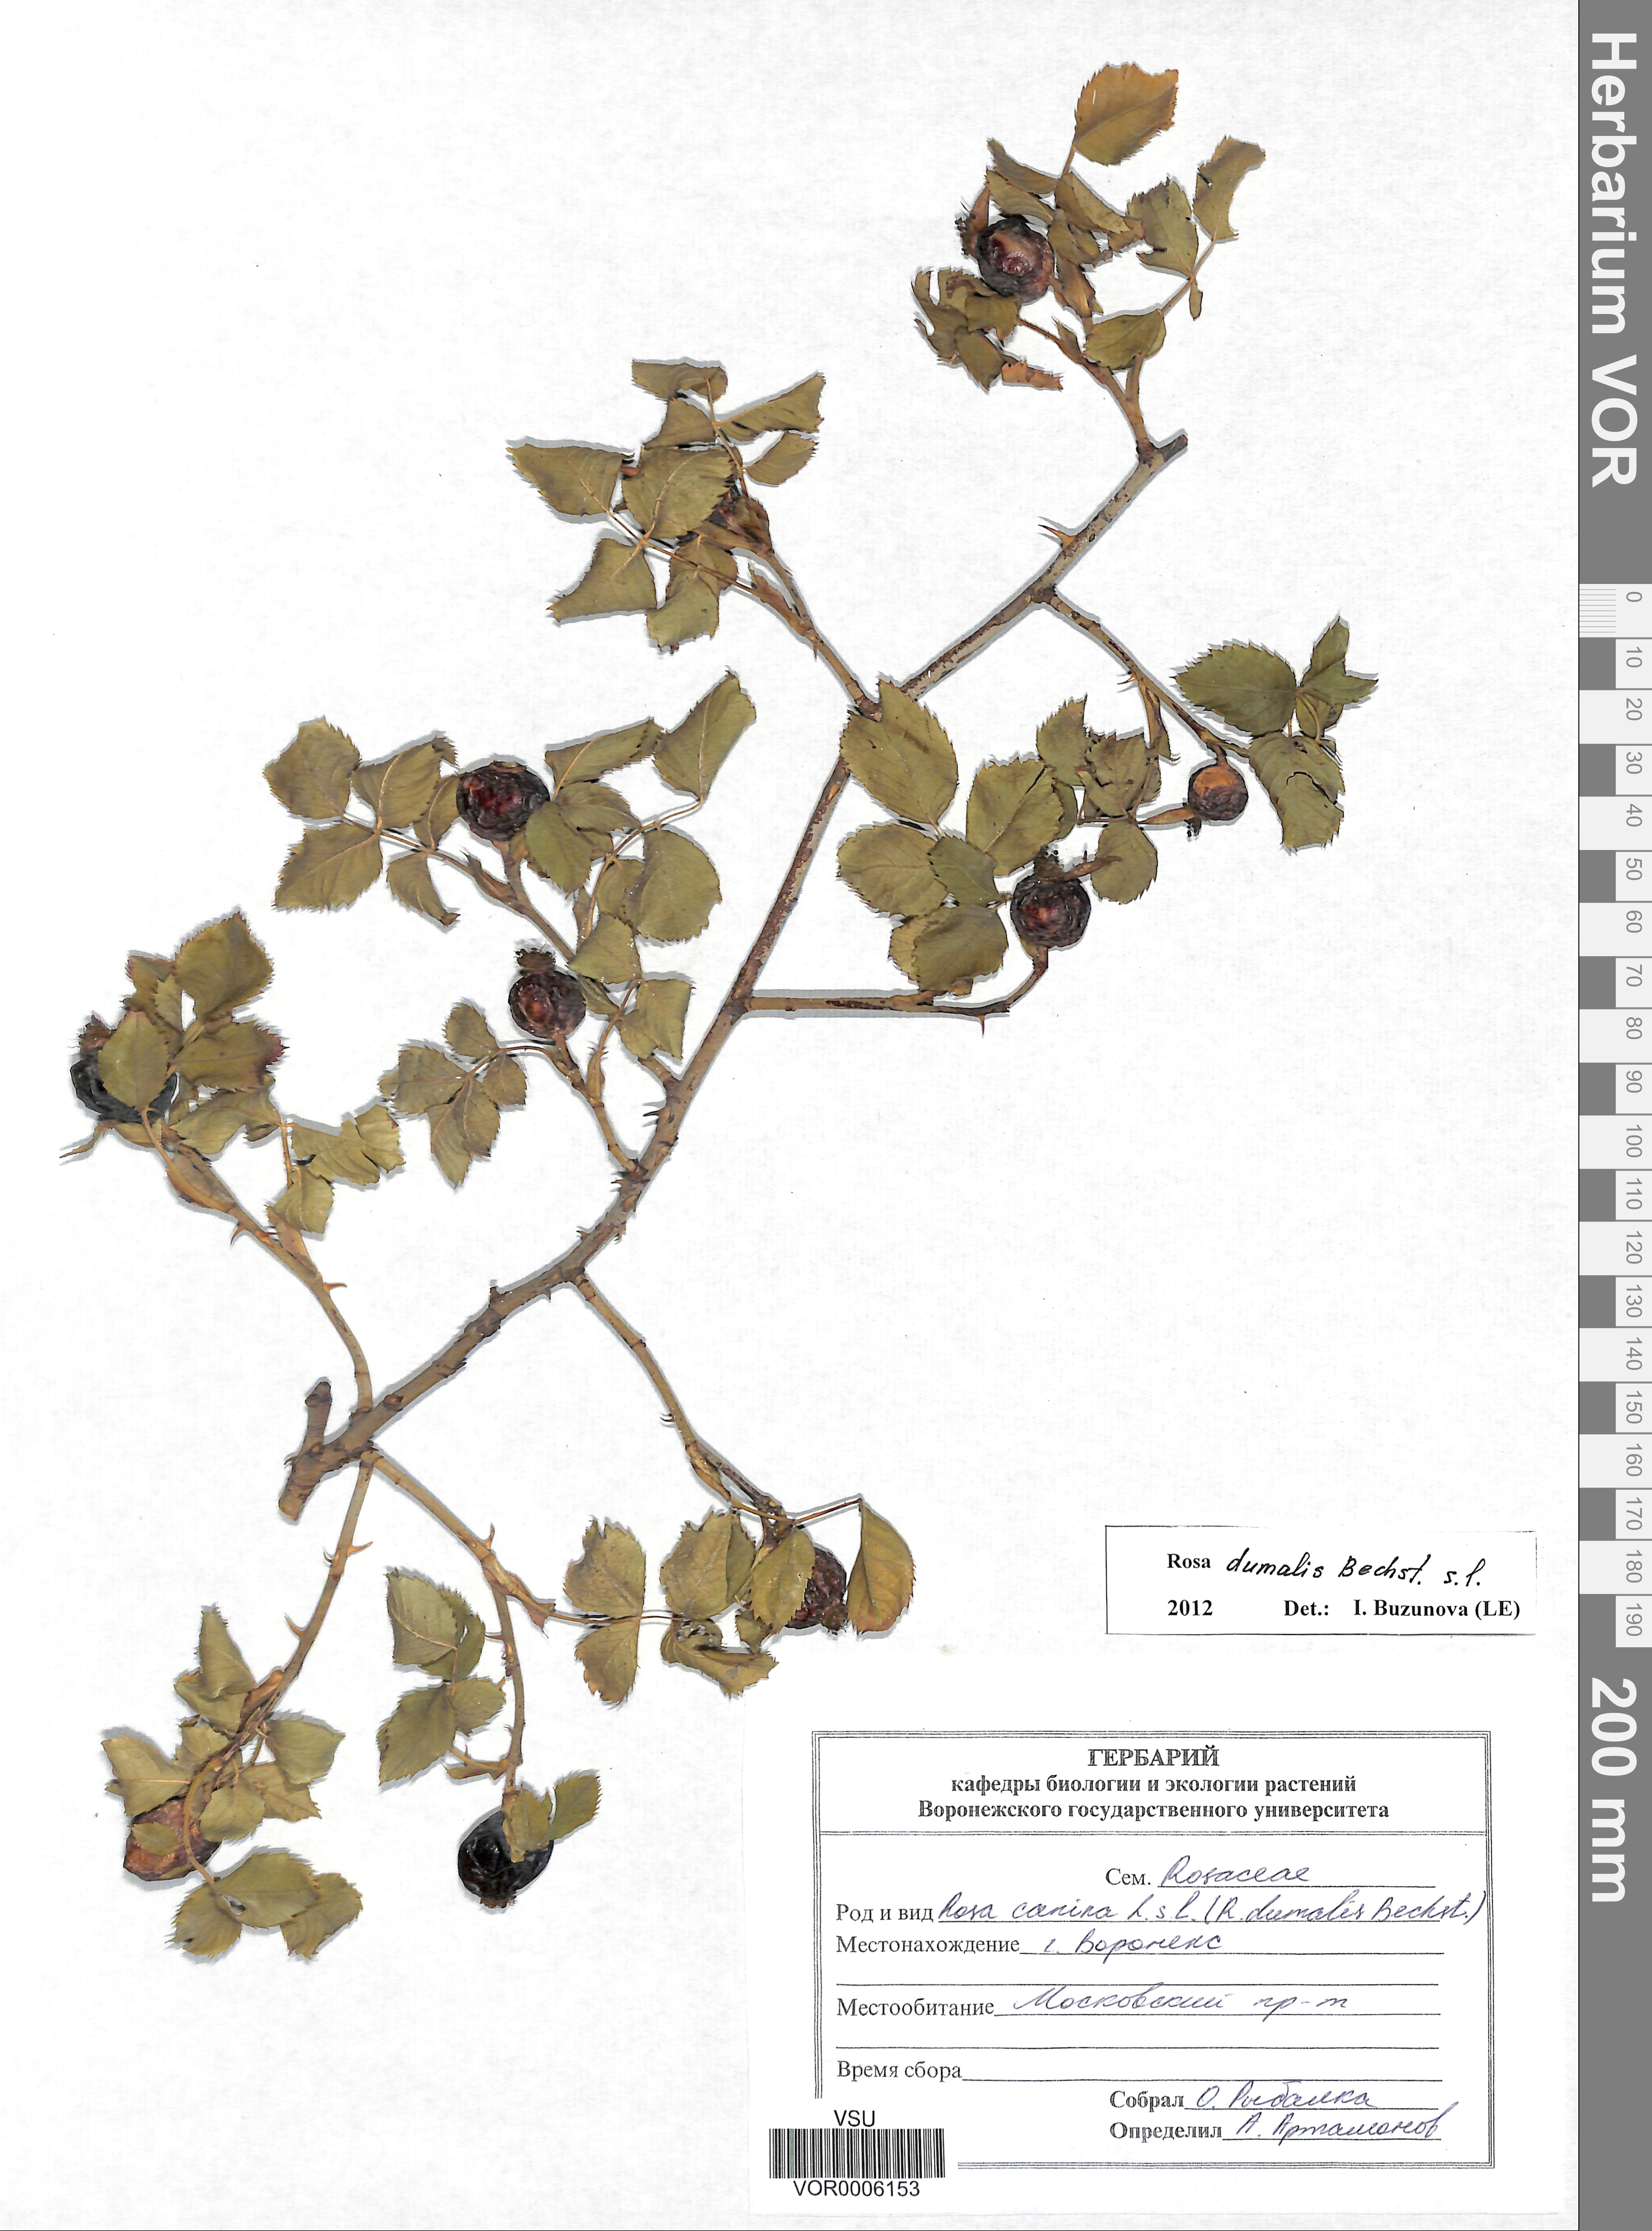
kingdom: Plantae
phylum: Tracheophyta
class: Magnoliopsida
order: Rosales
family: Rosaceae
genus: Rosa
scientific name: Rosa dumalis
